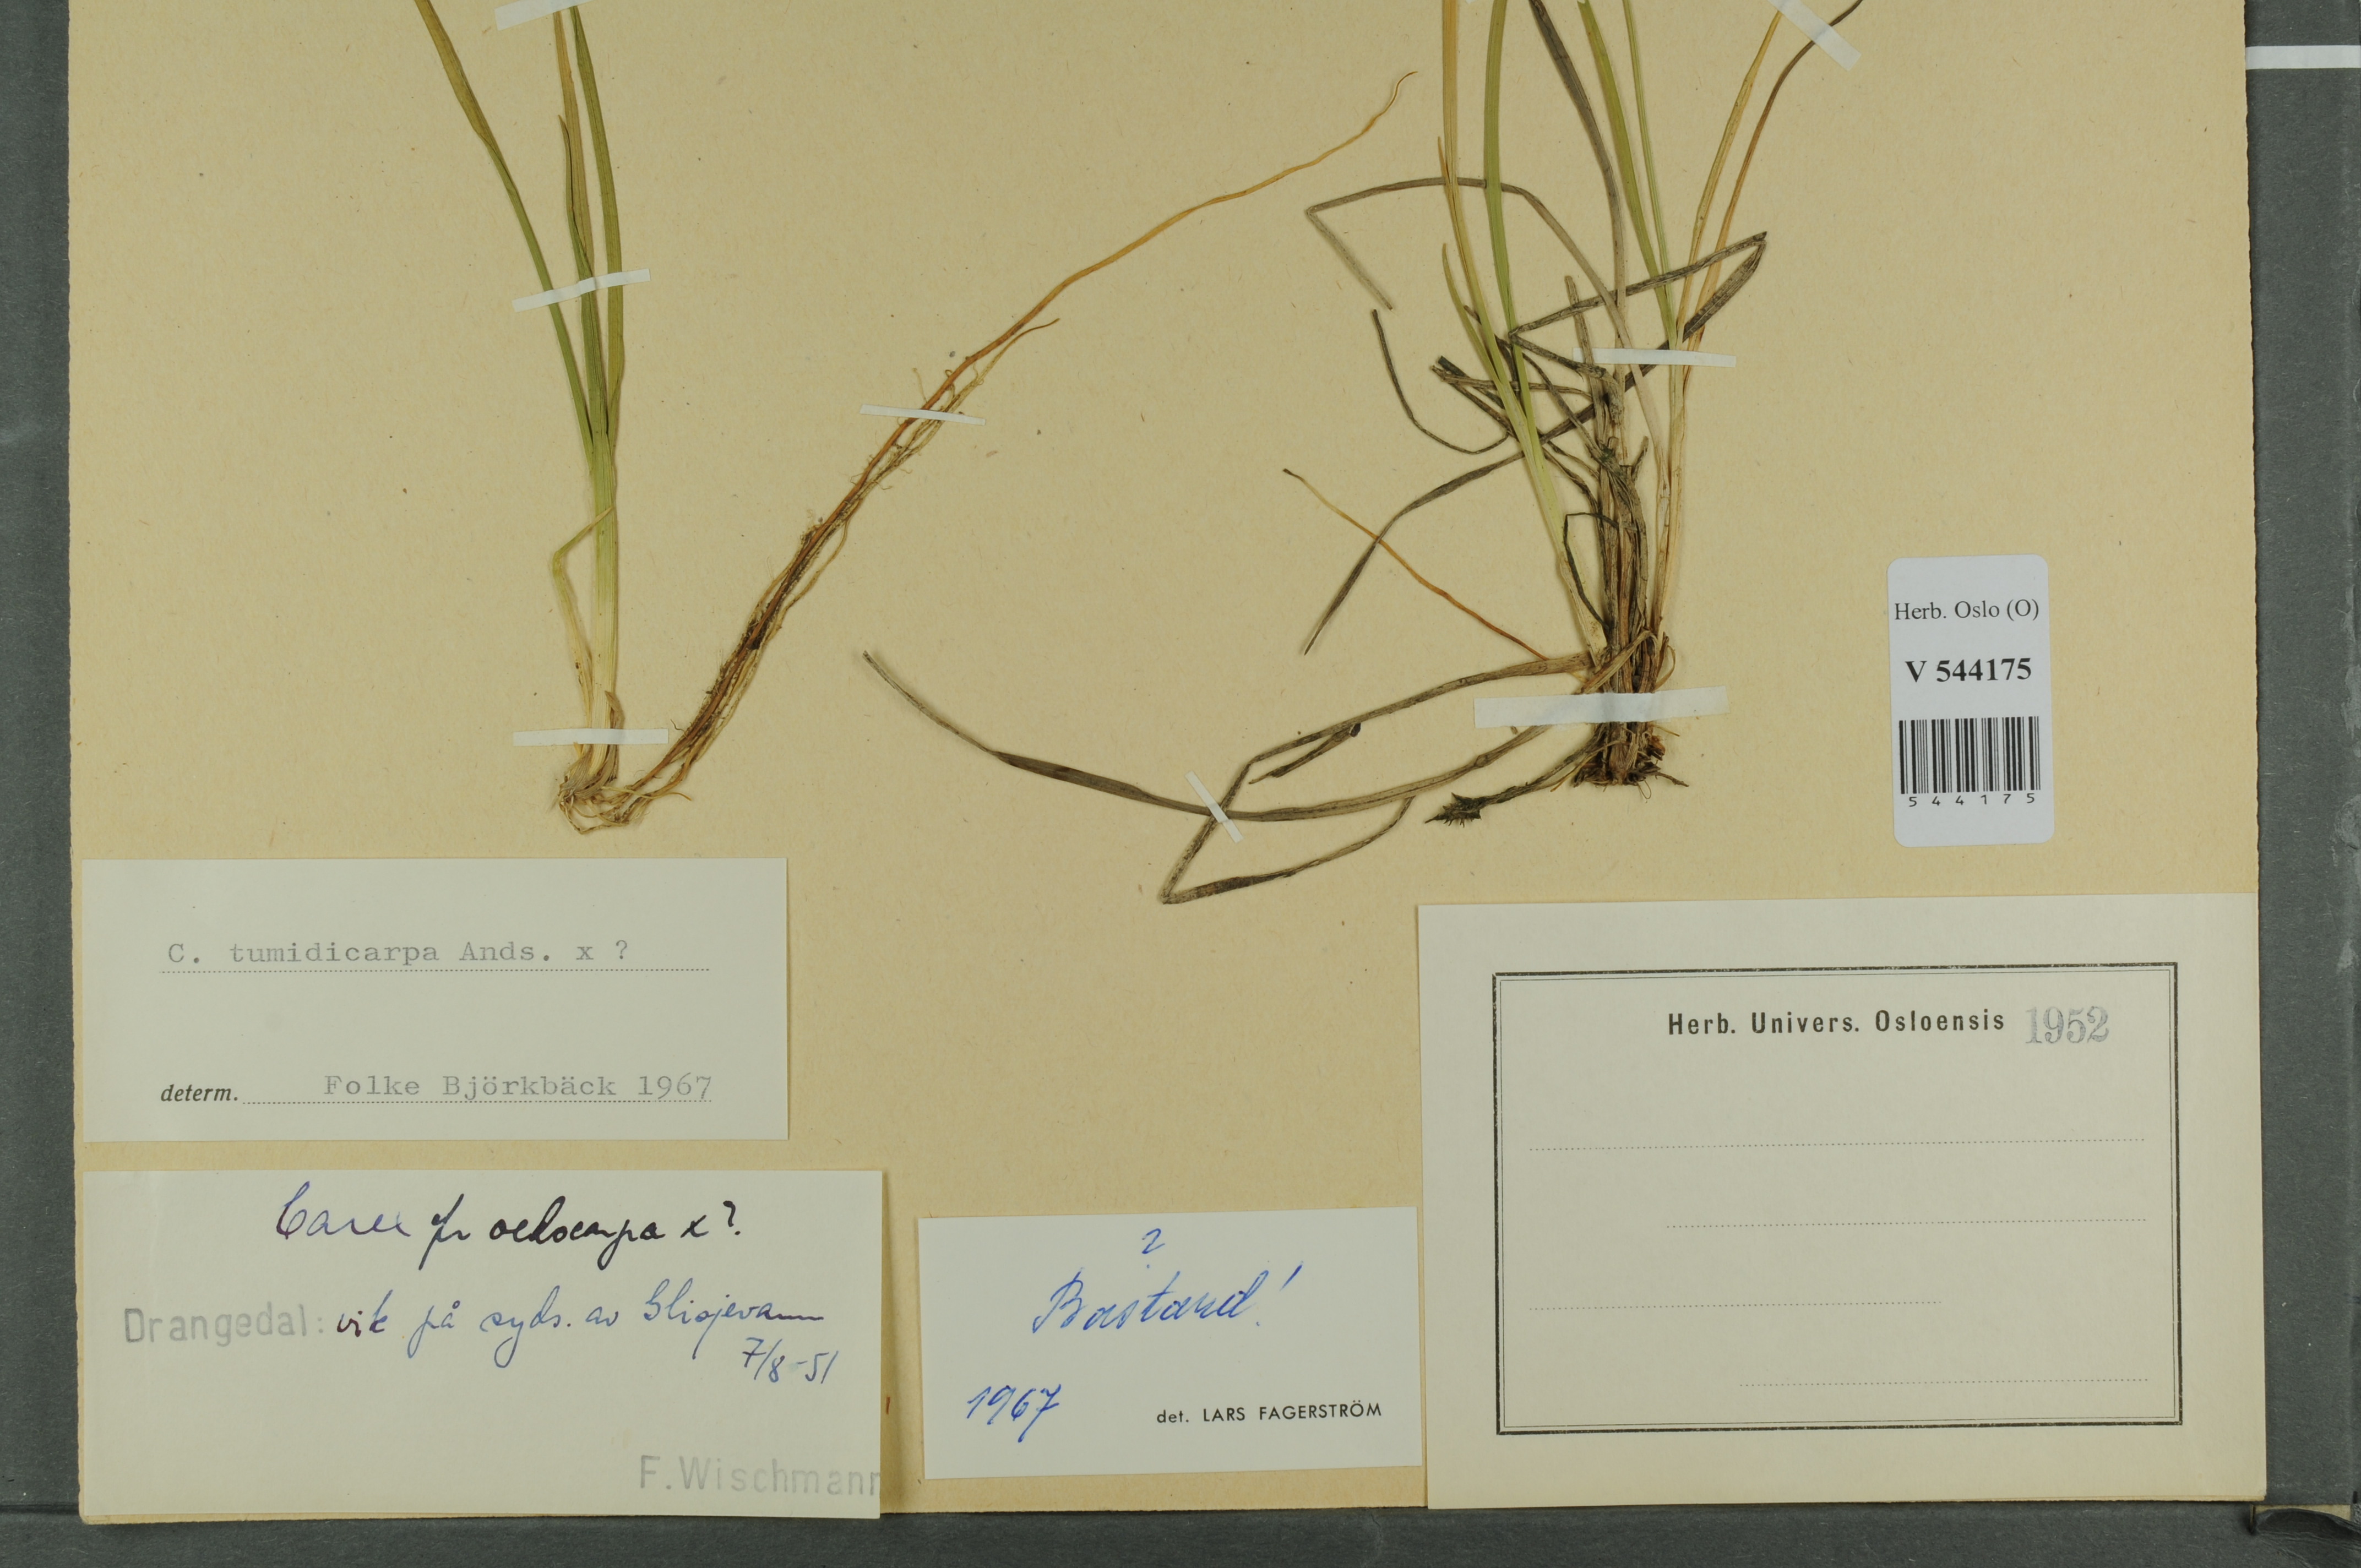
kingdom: Plantae
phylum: Tracheophyta
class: Liliopsida
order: Poales
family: Cyperaceae
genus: Carex
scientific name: Carex
